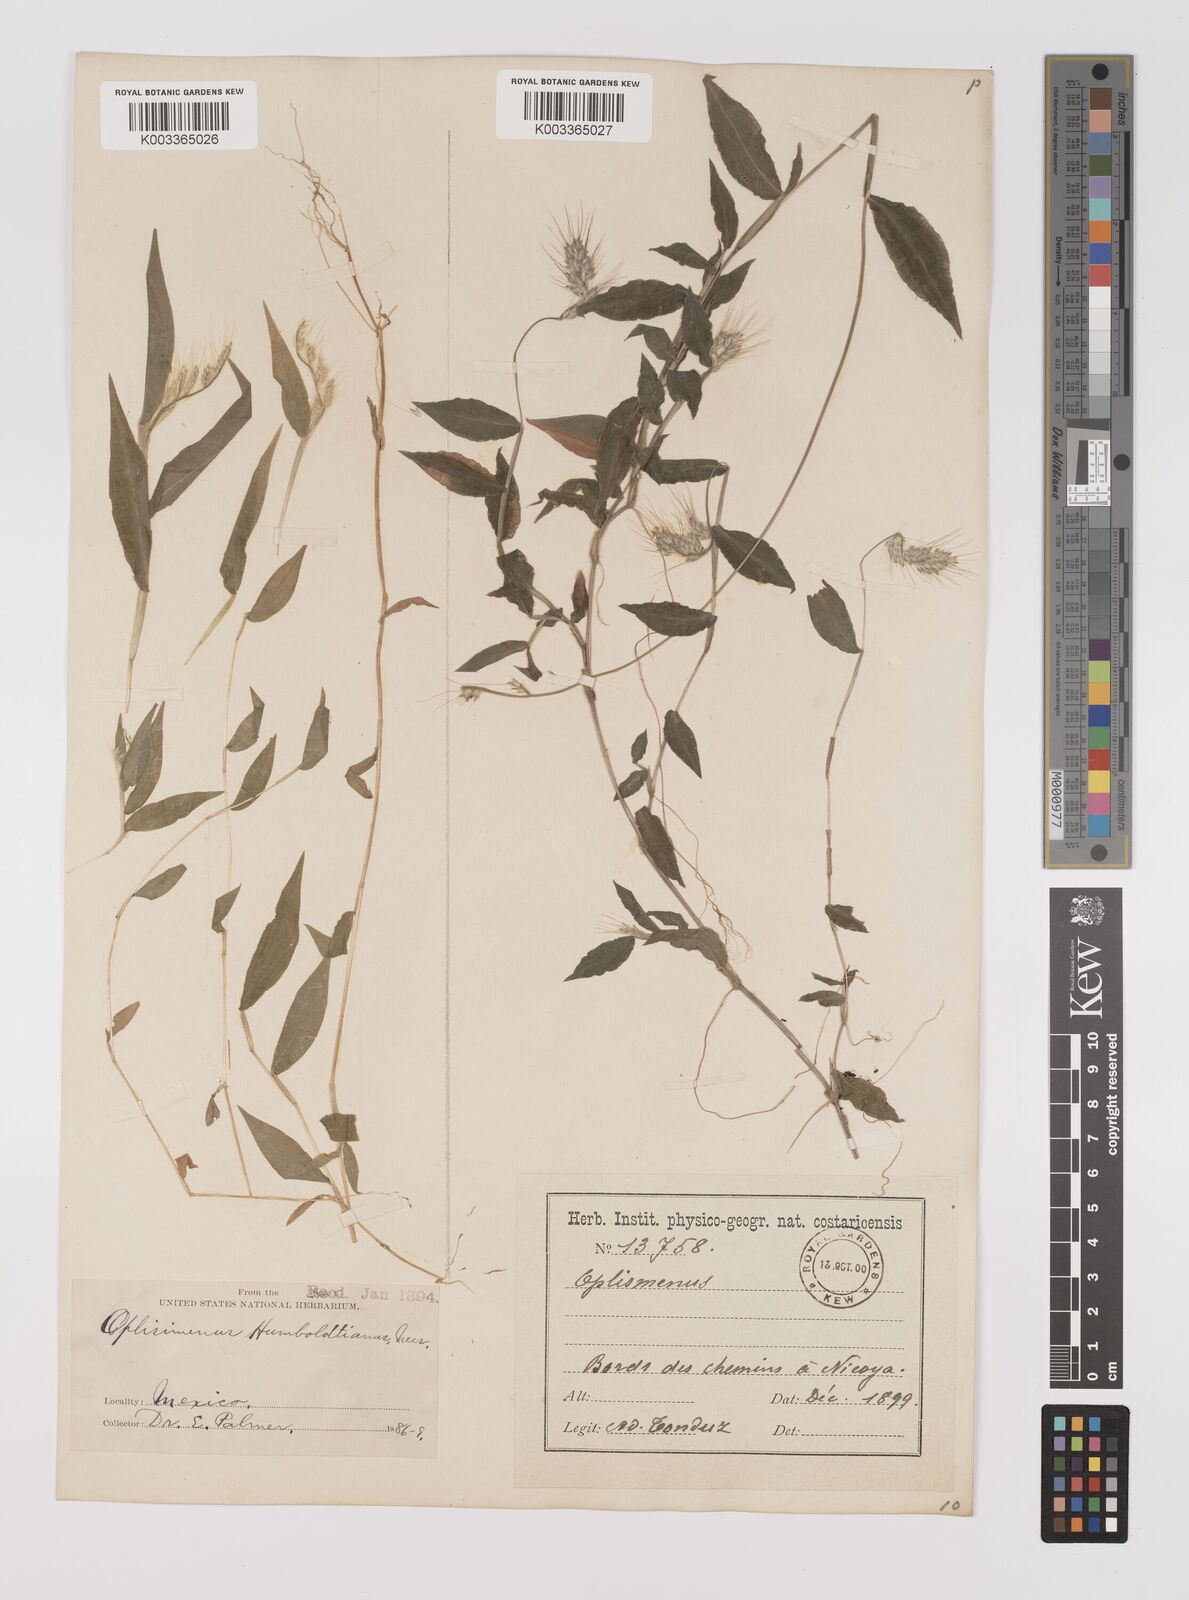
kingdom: Plantae
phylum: Tracheophyta
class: Liliopsida
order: Poales
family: Poaceae
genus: Oplismenus
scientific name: Oplismenus burmanni
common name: Burmann's basketgrass
